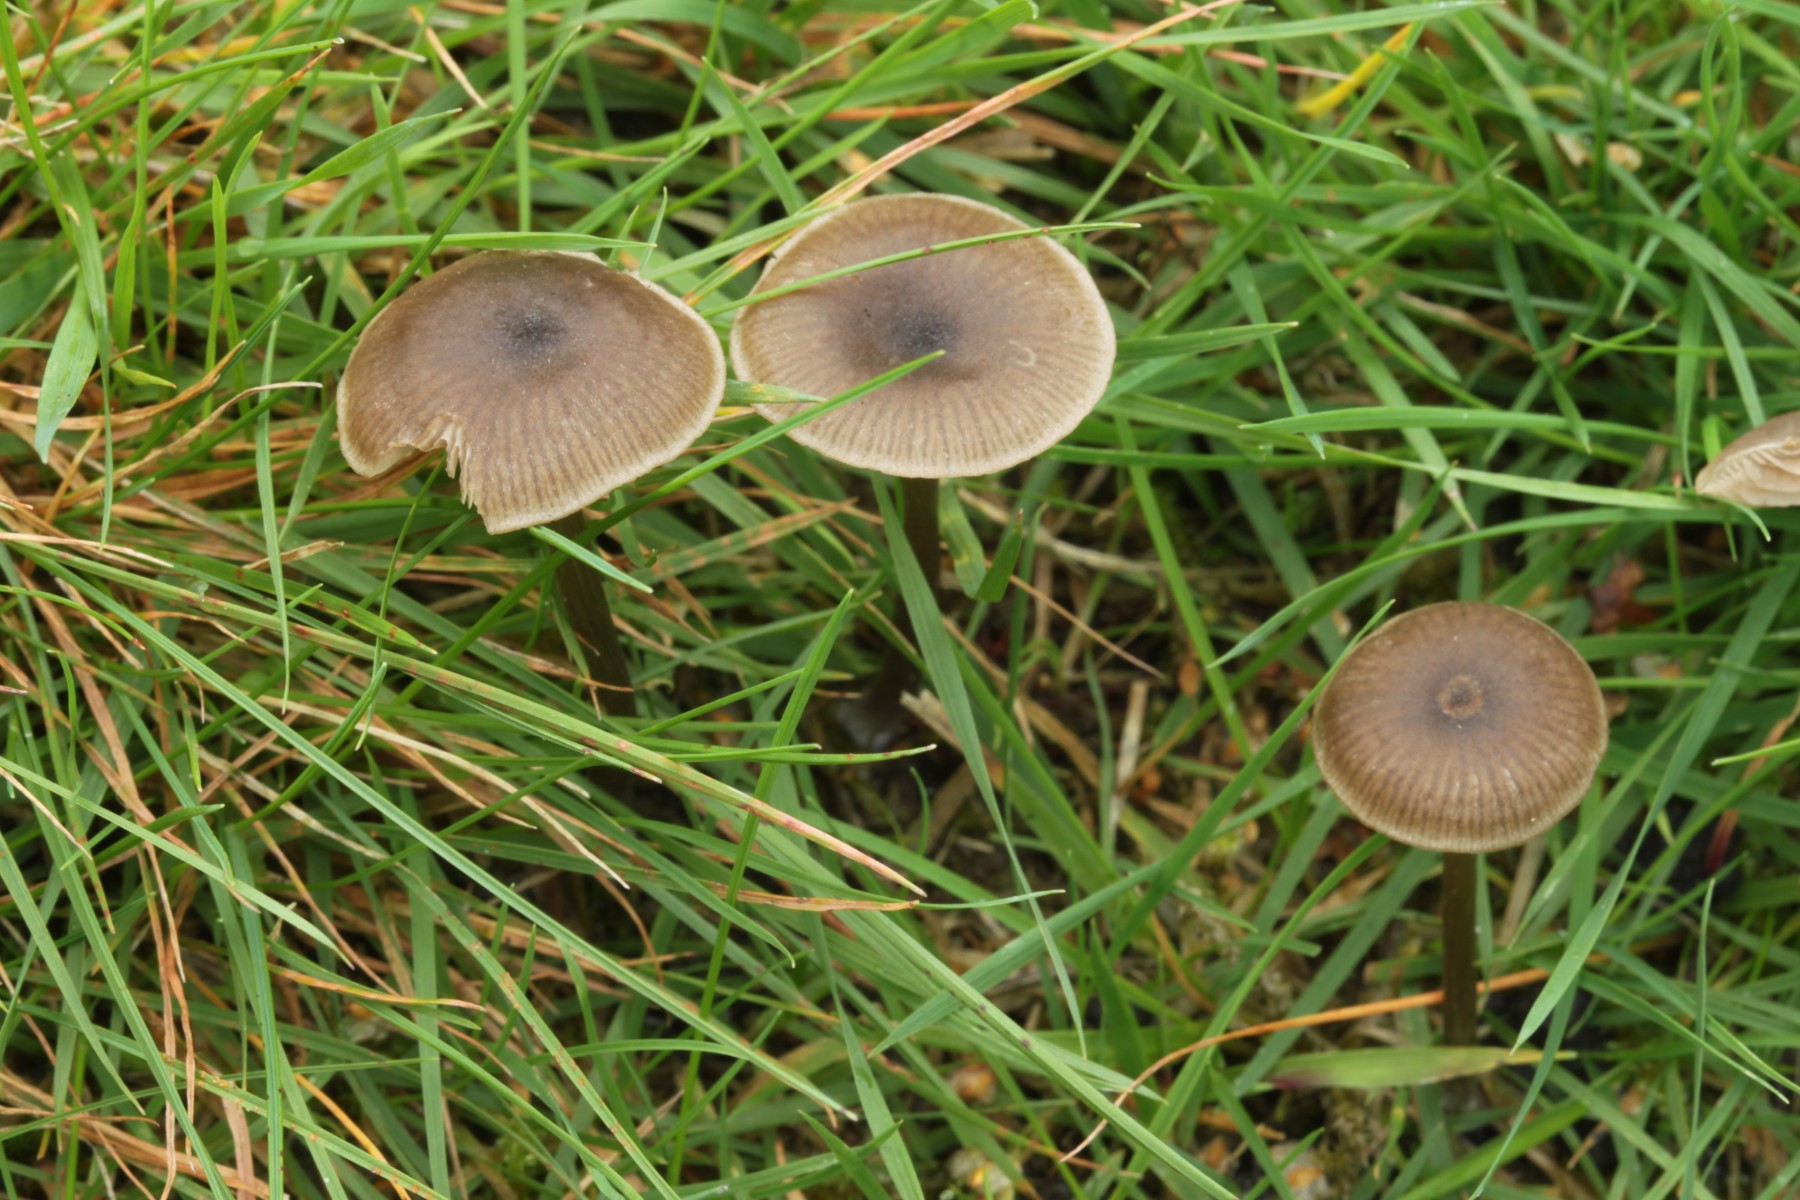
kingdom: Fungi
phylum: Basidiomycota
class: Agaricomycetes
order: Agaricales
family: Entolomataceae
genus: Entoloma
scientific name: Entoloma
